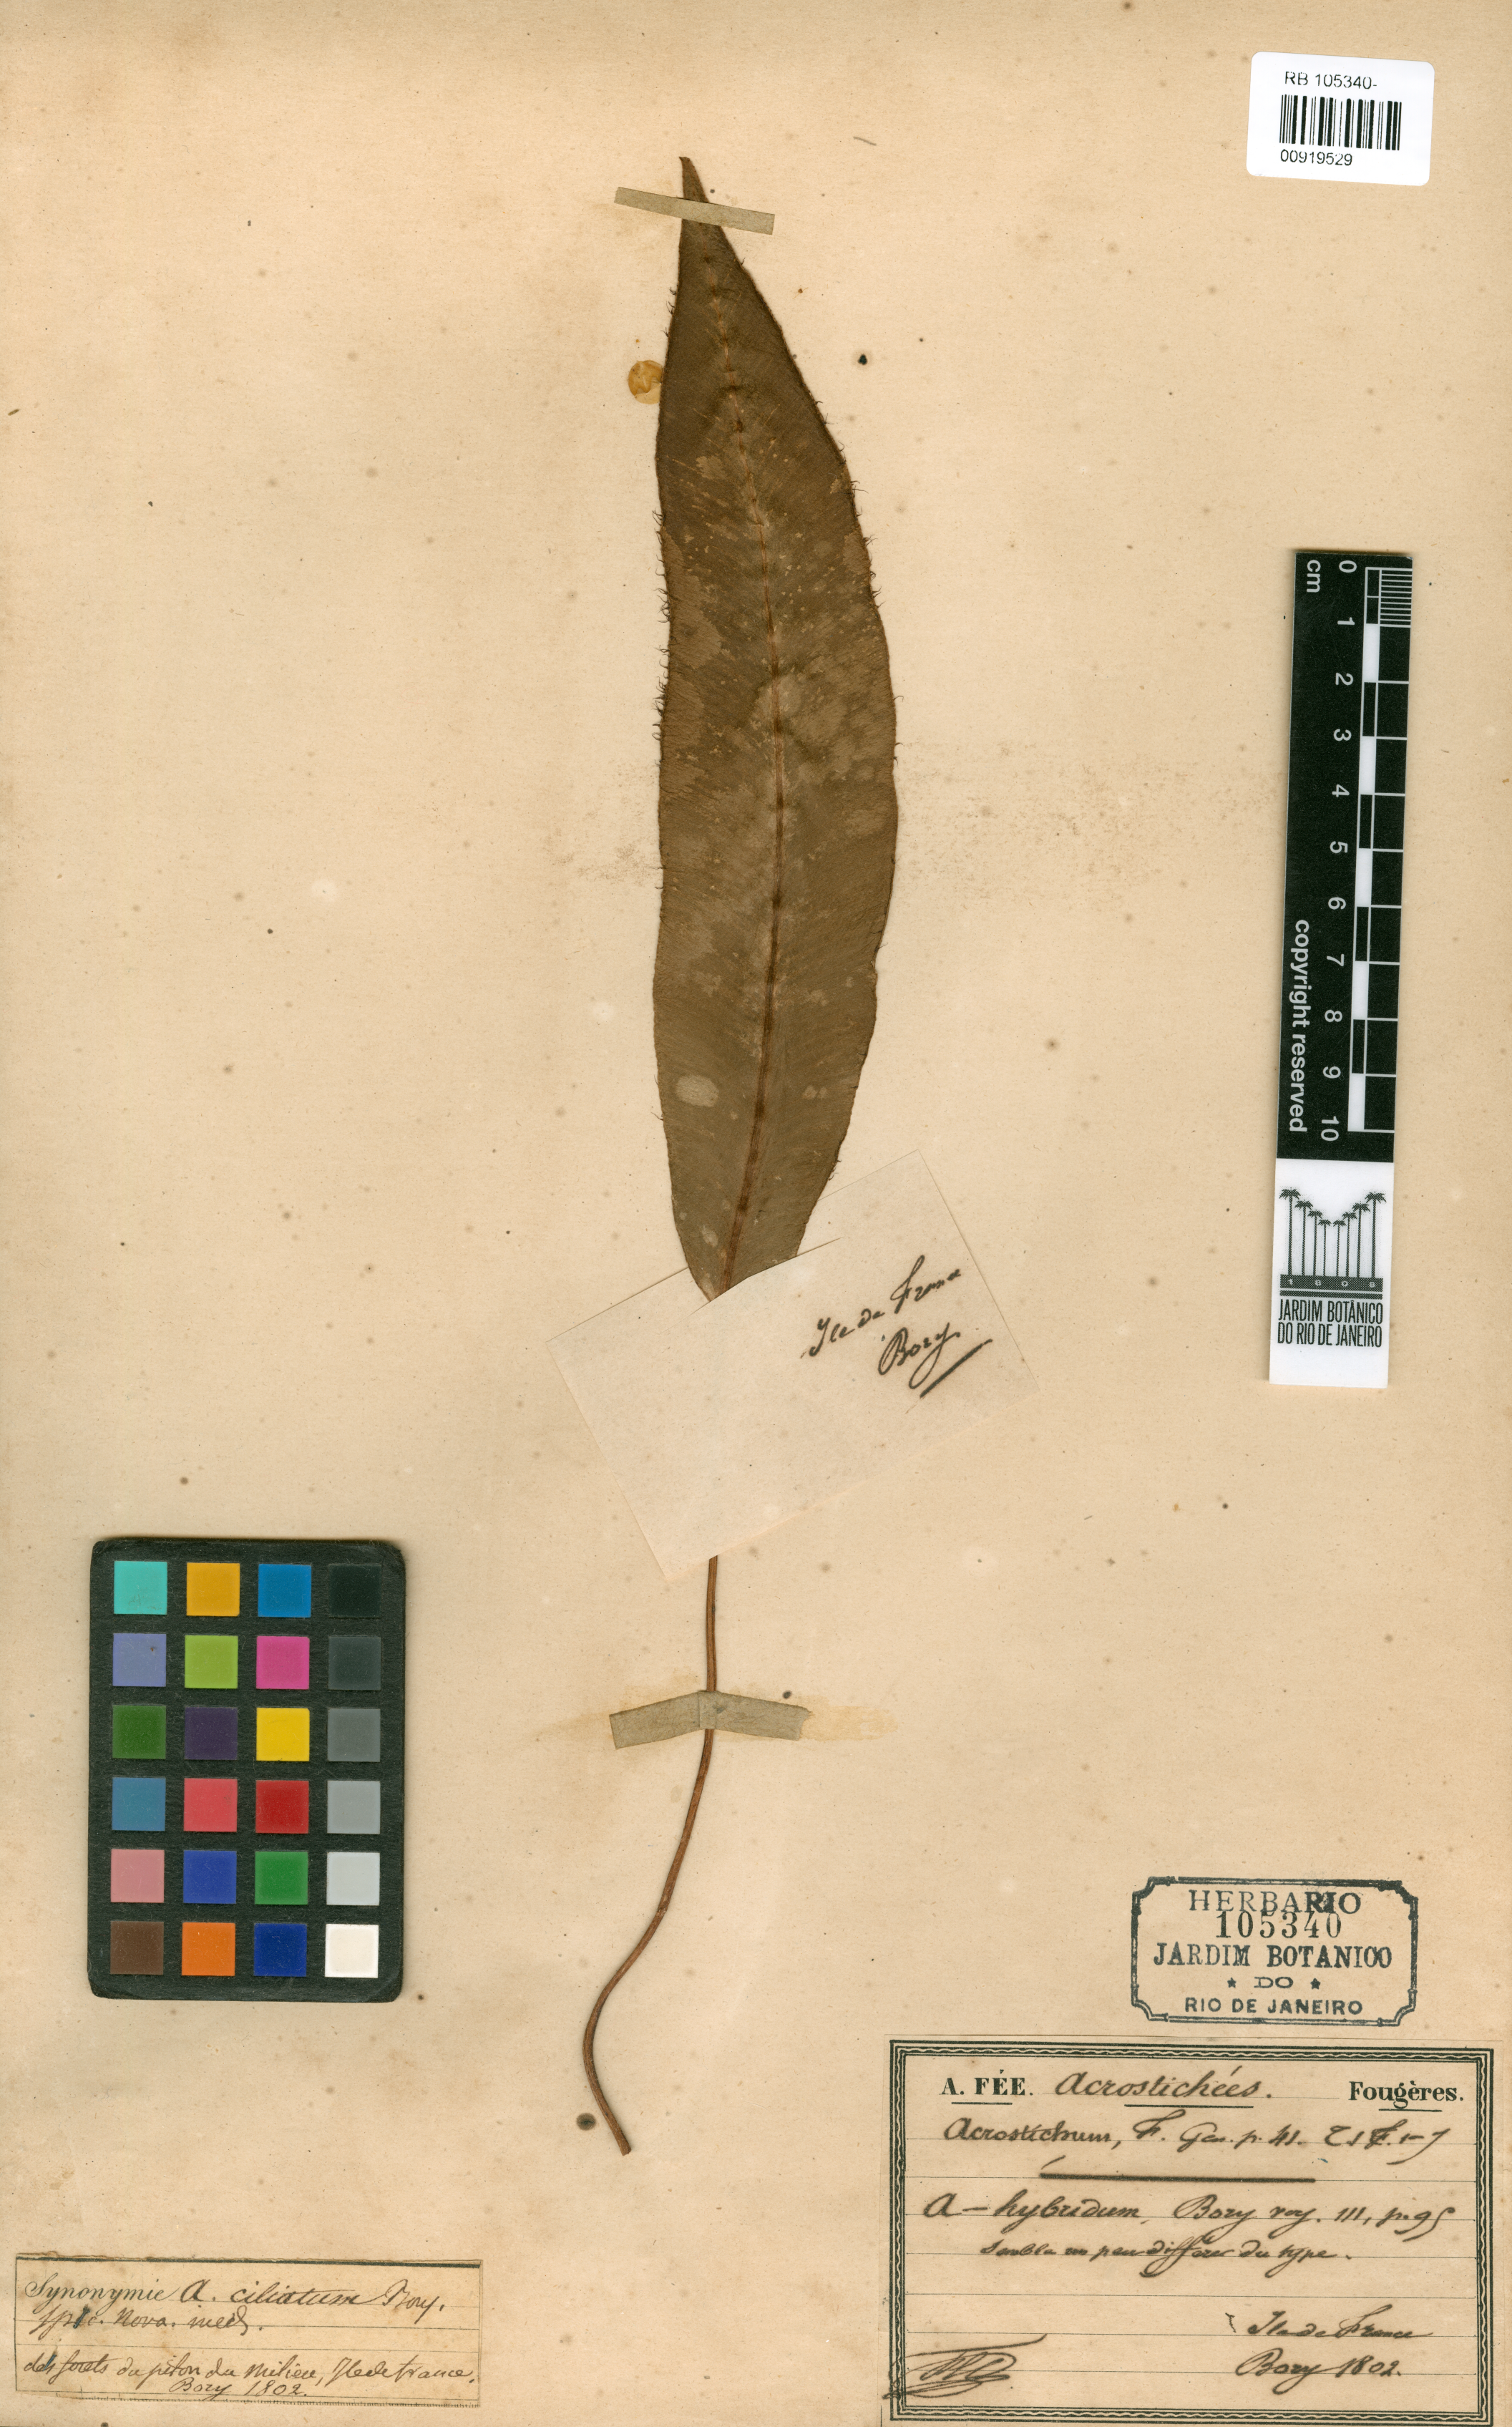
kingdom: Plantae
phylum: Tracheophyta
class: Polypodiopsida
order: Polypodiales
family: Dryopteridaceae
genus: Elaphoglossum
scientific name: Elaphoglossum hybridum
